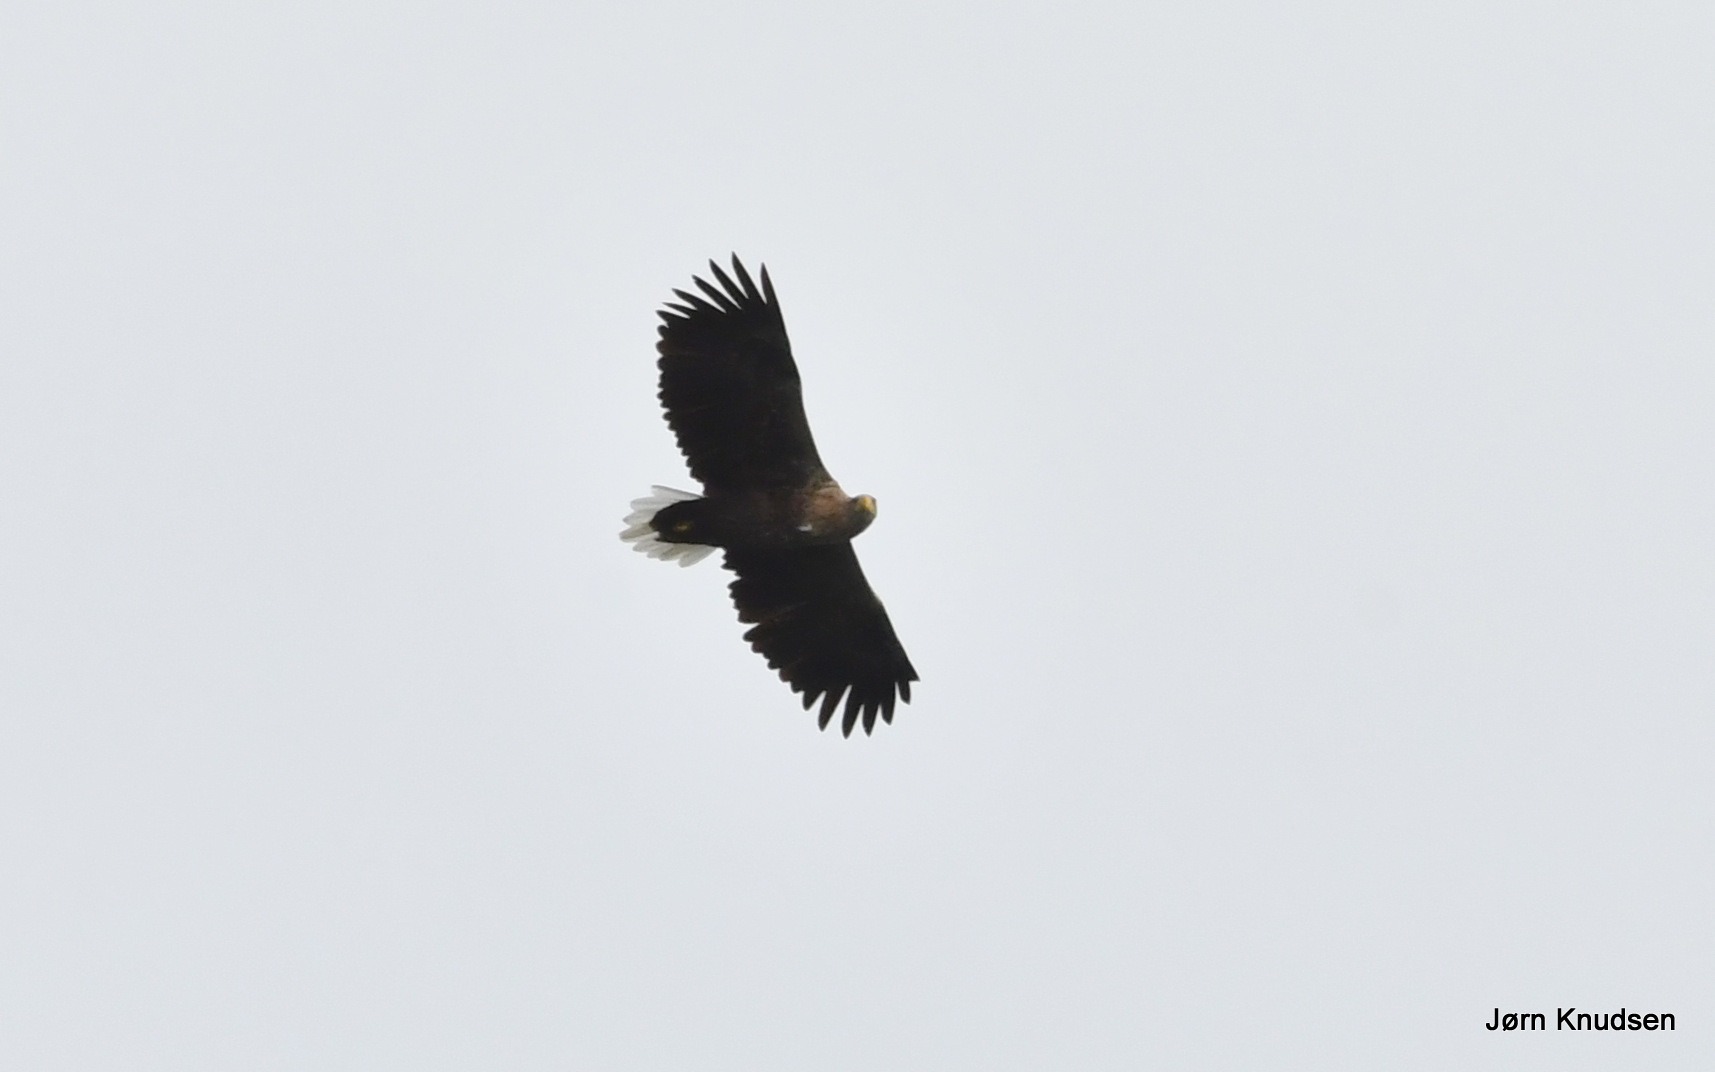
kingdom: Animalia
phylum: Chordata
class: Aves
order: Accipitriformes
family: Accipitridae
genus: Haliaeetus
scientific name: Haliaeetus albicilla
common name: Havørn
